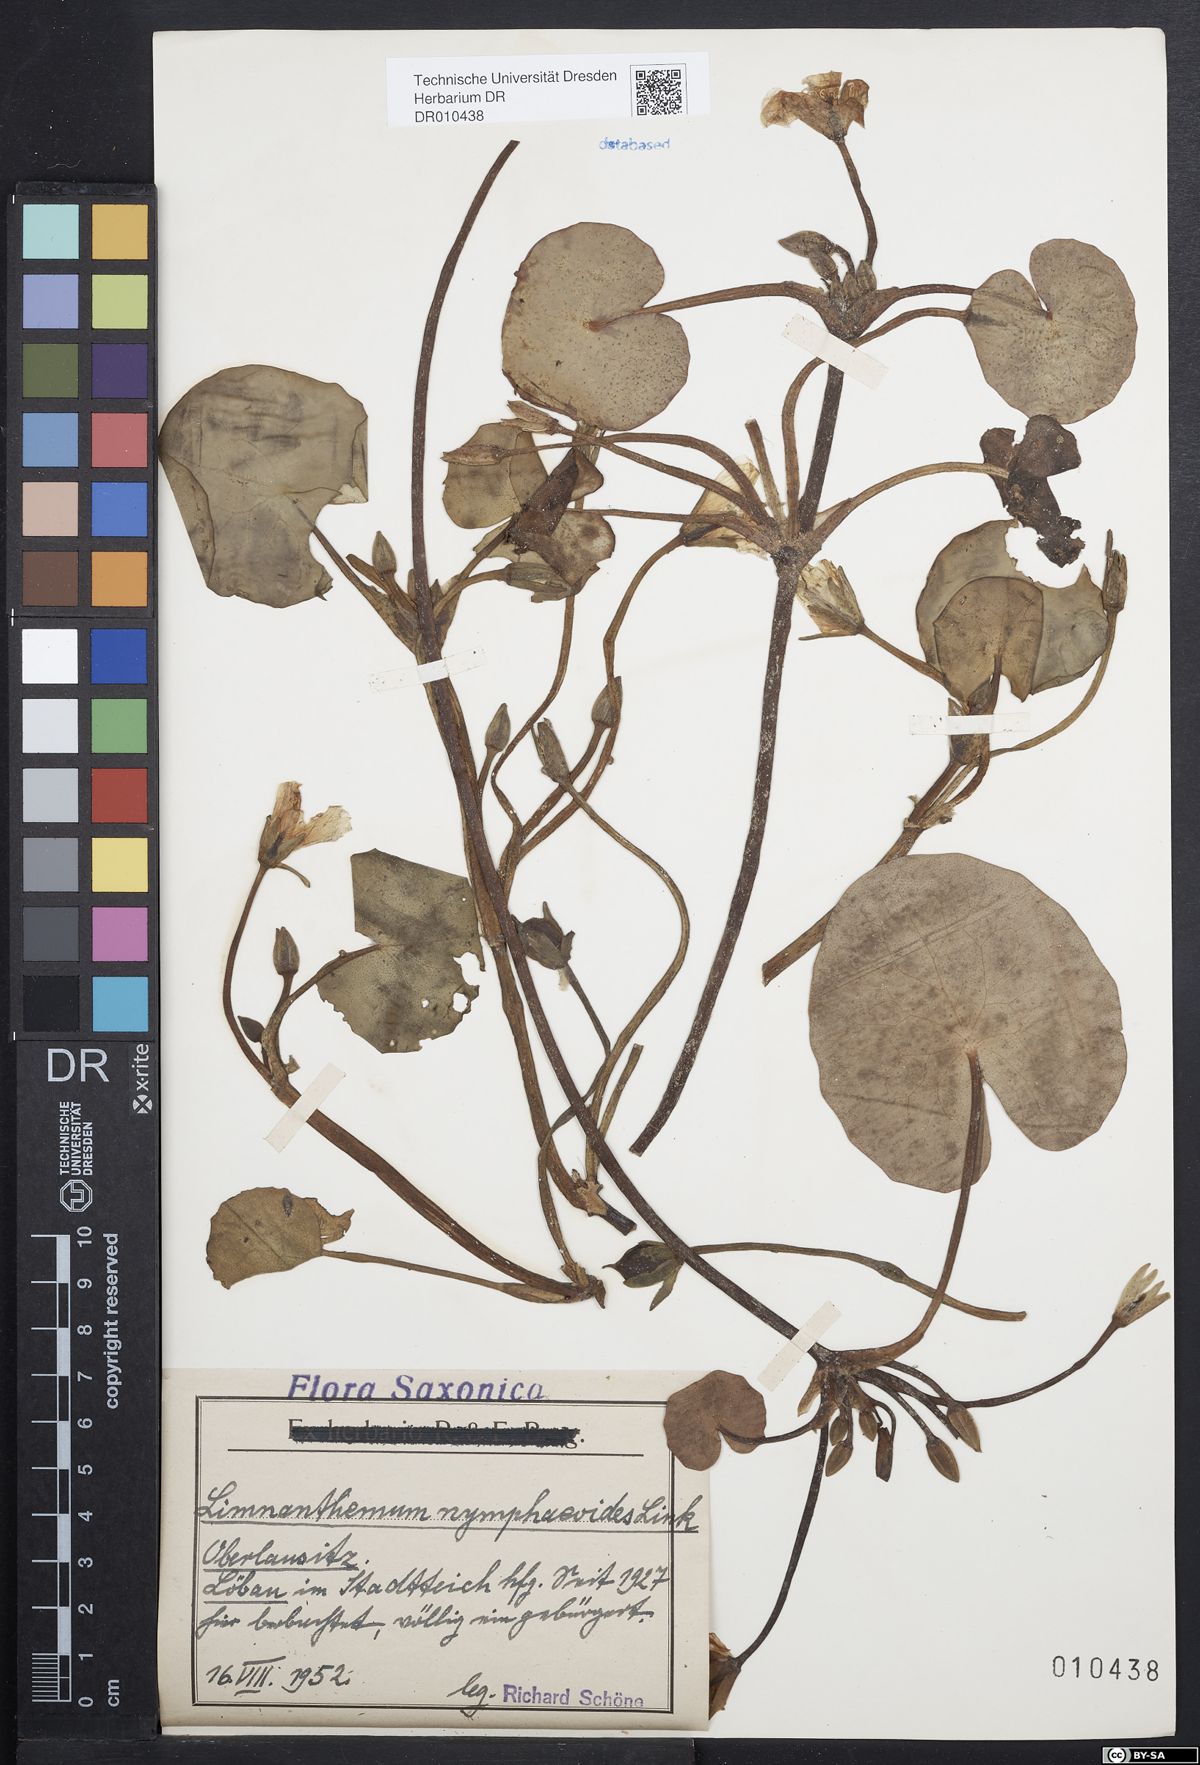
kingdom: Plantae
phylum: Tracheophyta
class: Magnoliopsida
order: Asterales
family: Menyanthaceae
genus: Nymphoides
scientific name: Nymphoides peltata
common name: Fringed water-lily
